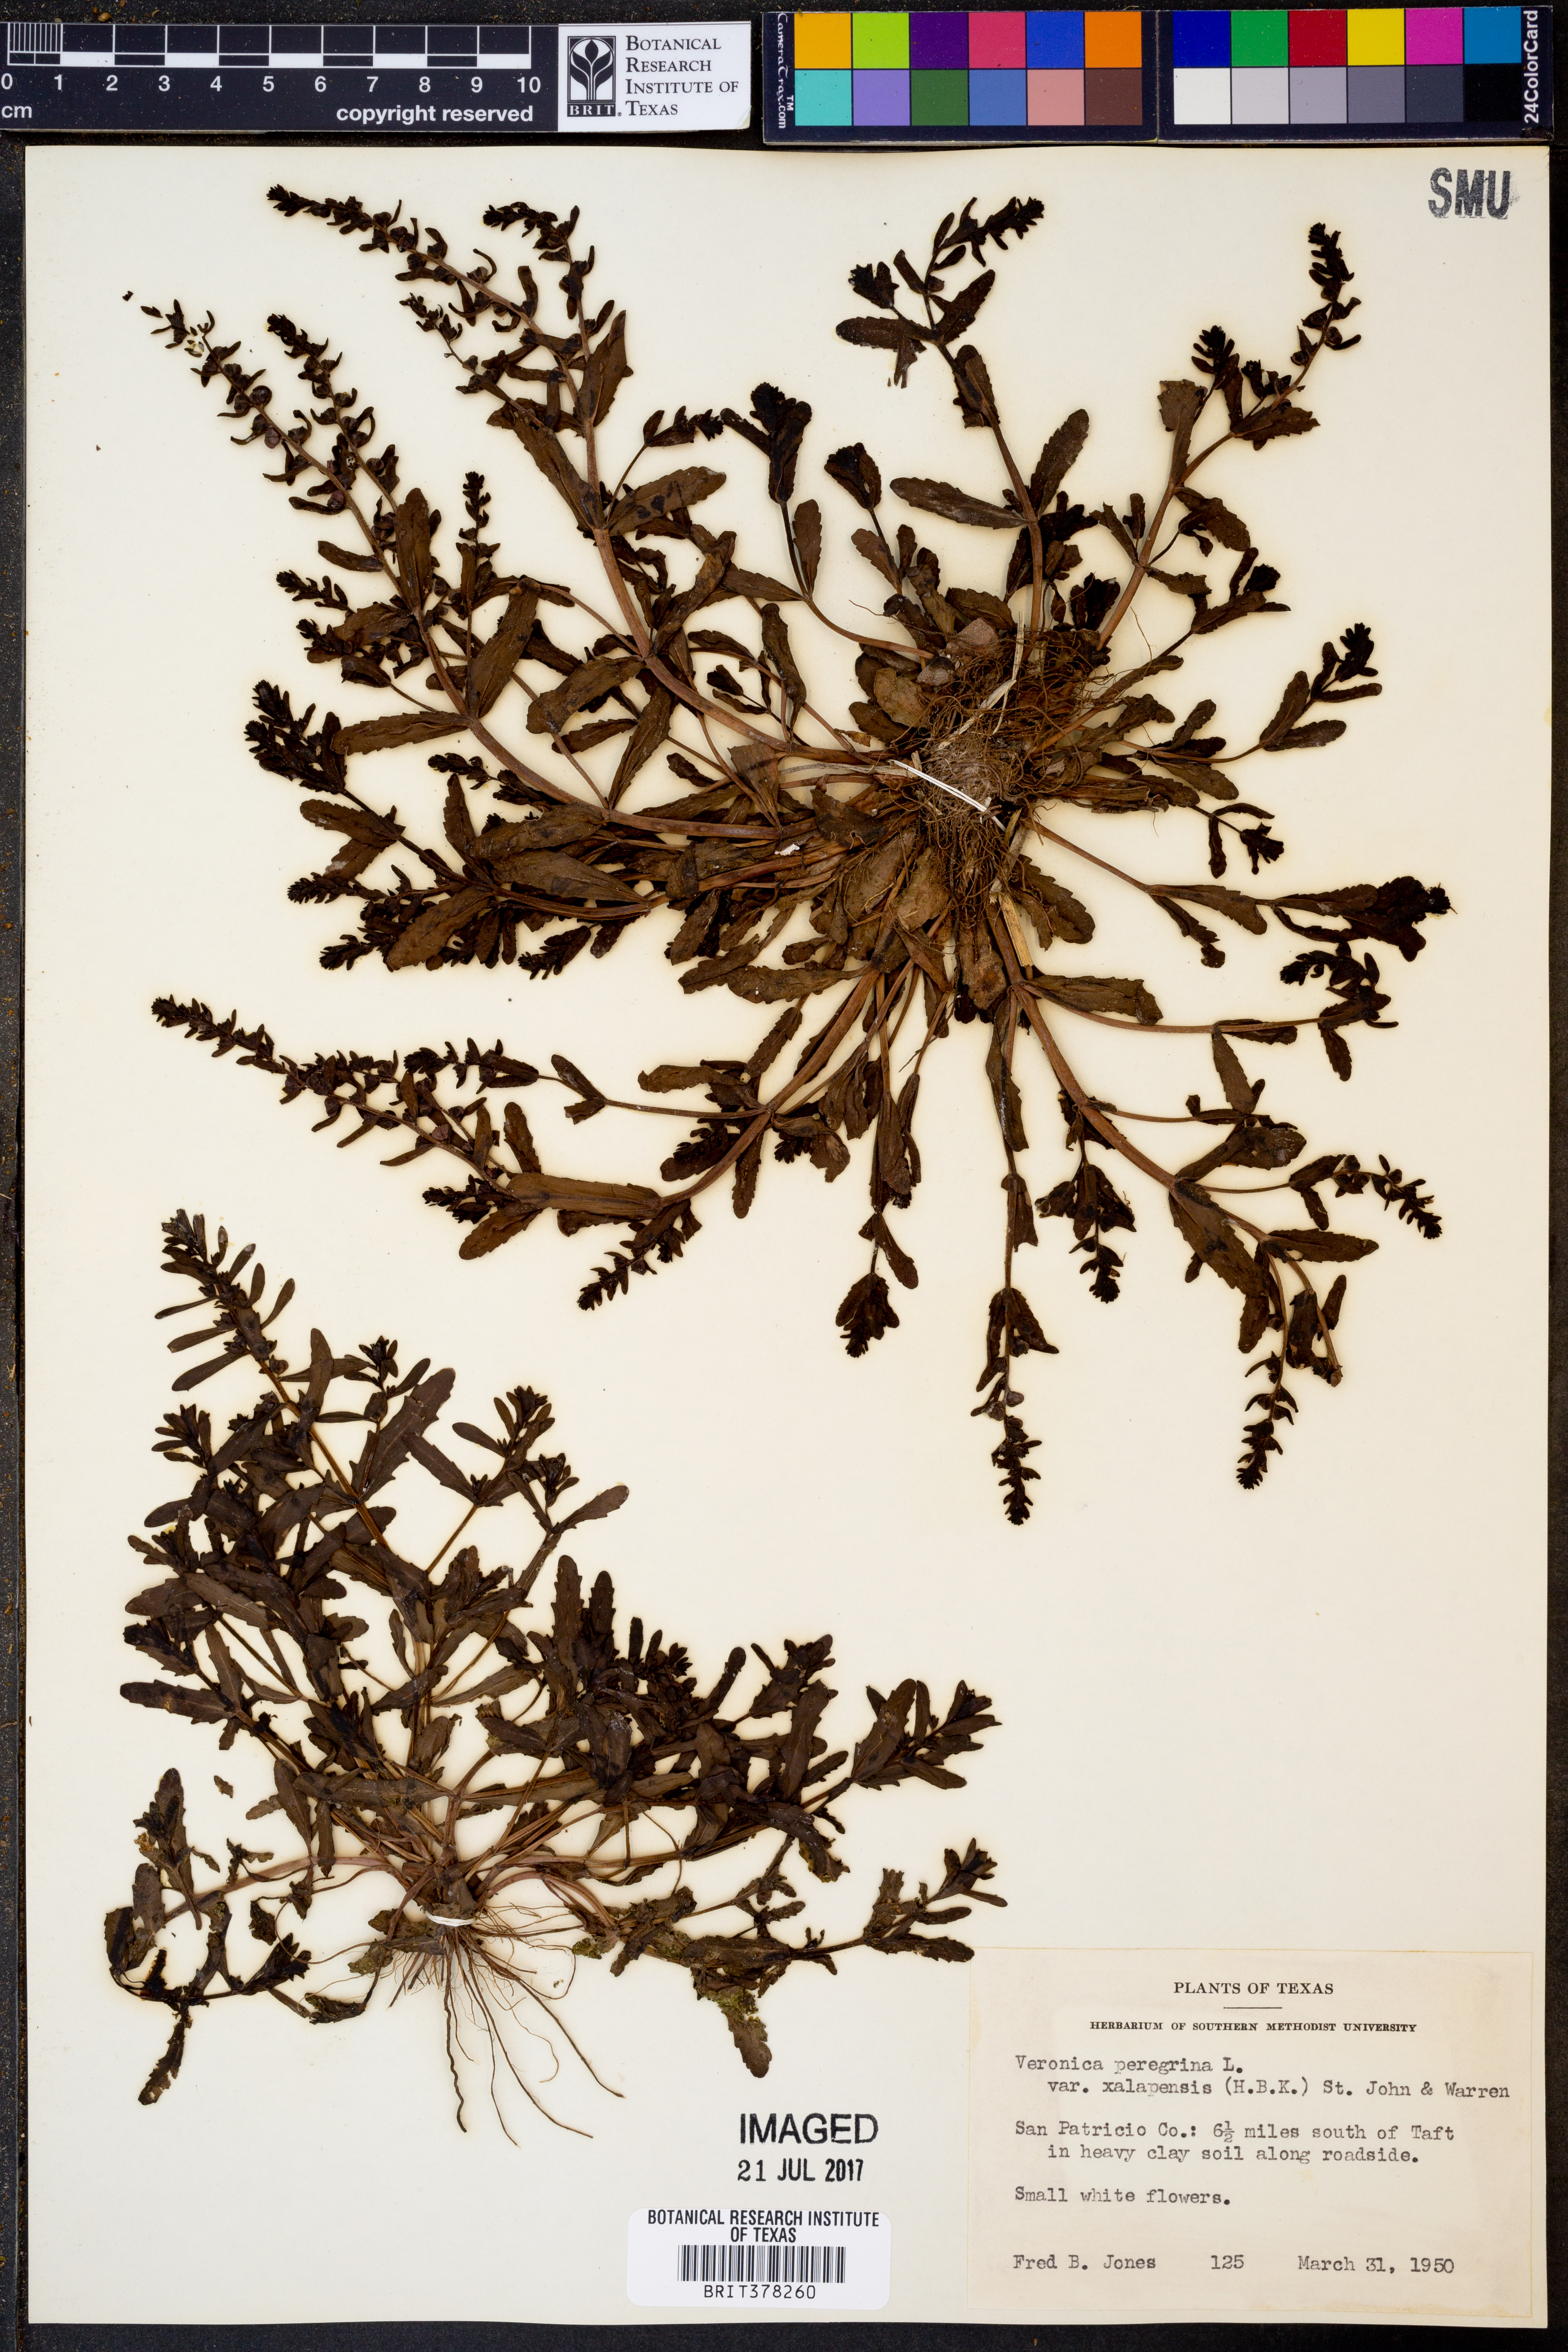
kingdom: Plantae
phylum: Tracheophyta
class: Magnoliopsida
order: Lamiales
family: Plantaginaceae
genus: Veronica
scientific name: Veronica peregrina
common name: Neckweed
